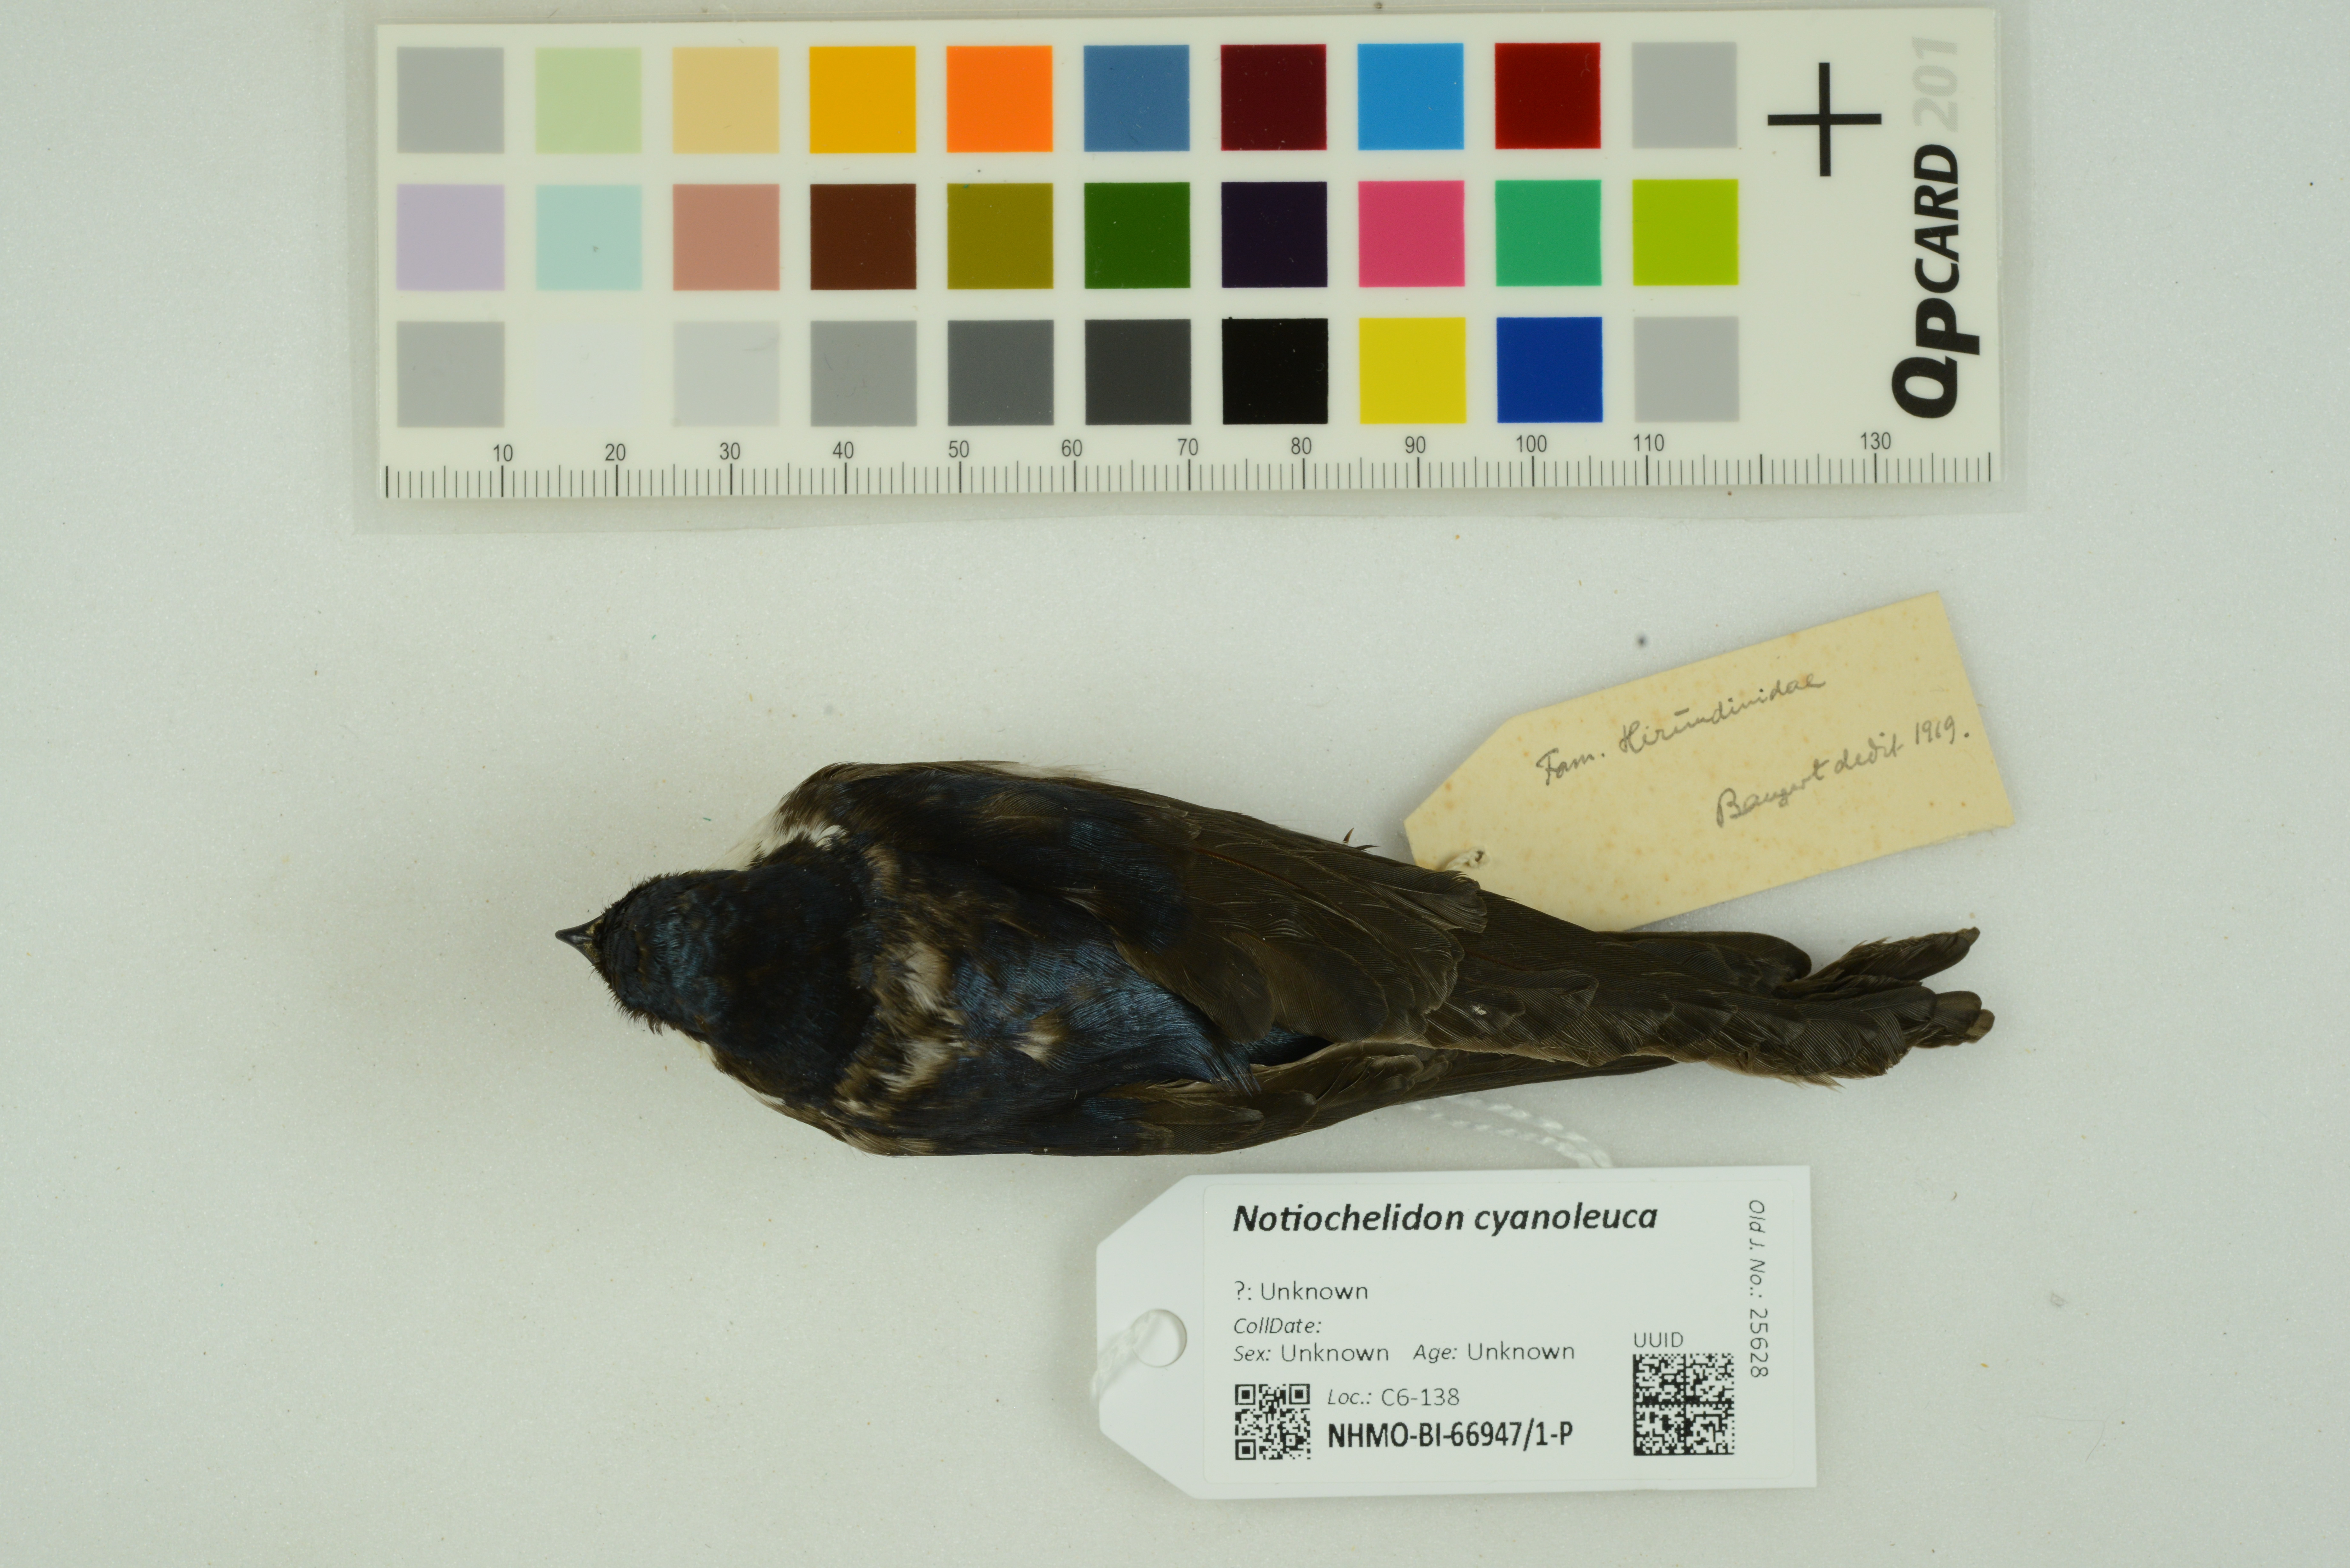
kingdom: Animalia
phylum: Chordata
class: Aves
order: Passeriformes
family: Hirundinidae
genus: Notiochelidon
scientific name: Notiochelidon cyanoleuca
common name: Blue-and-white swallow
